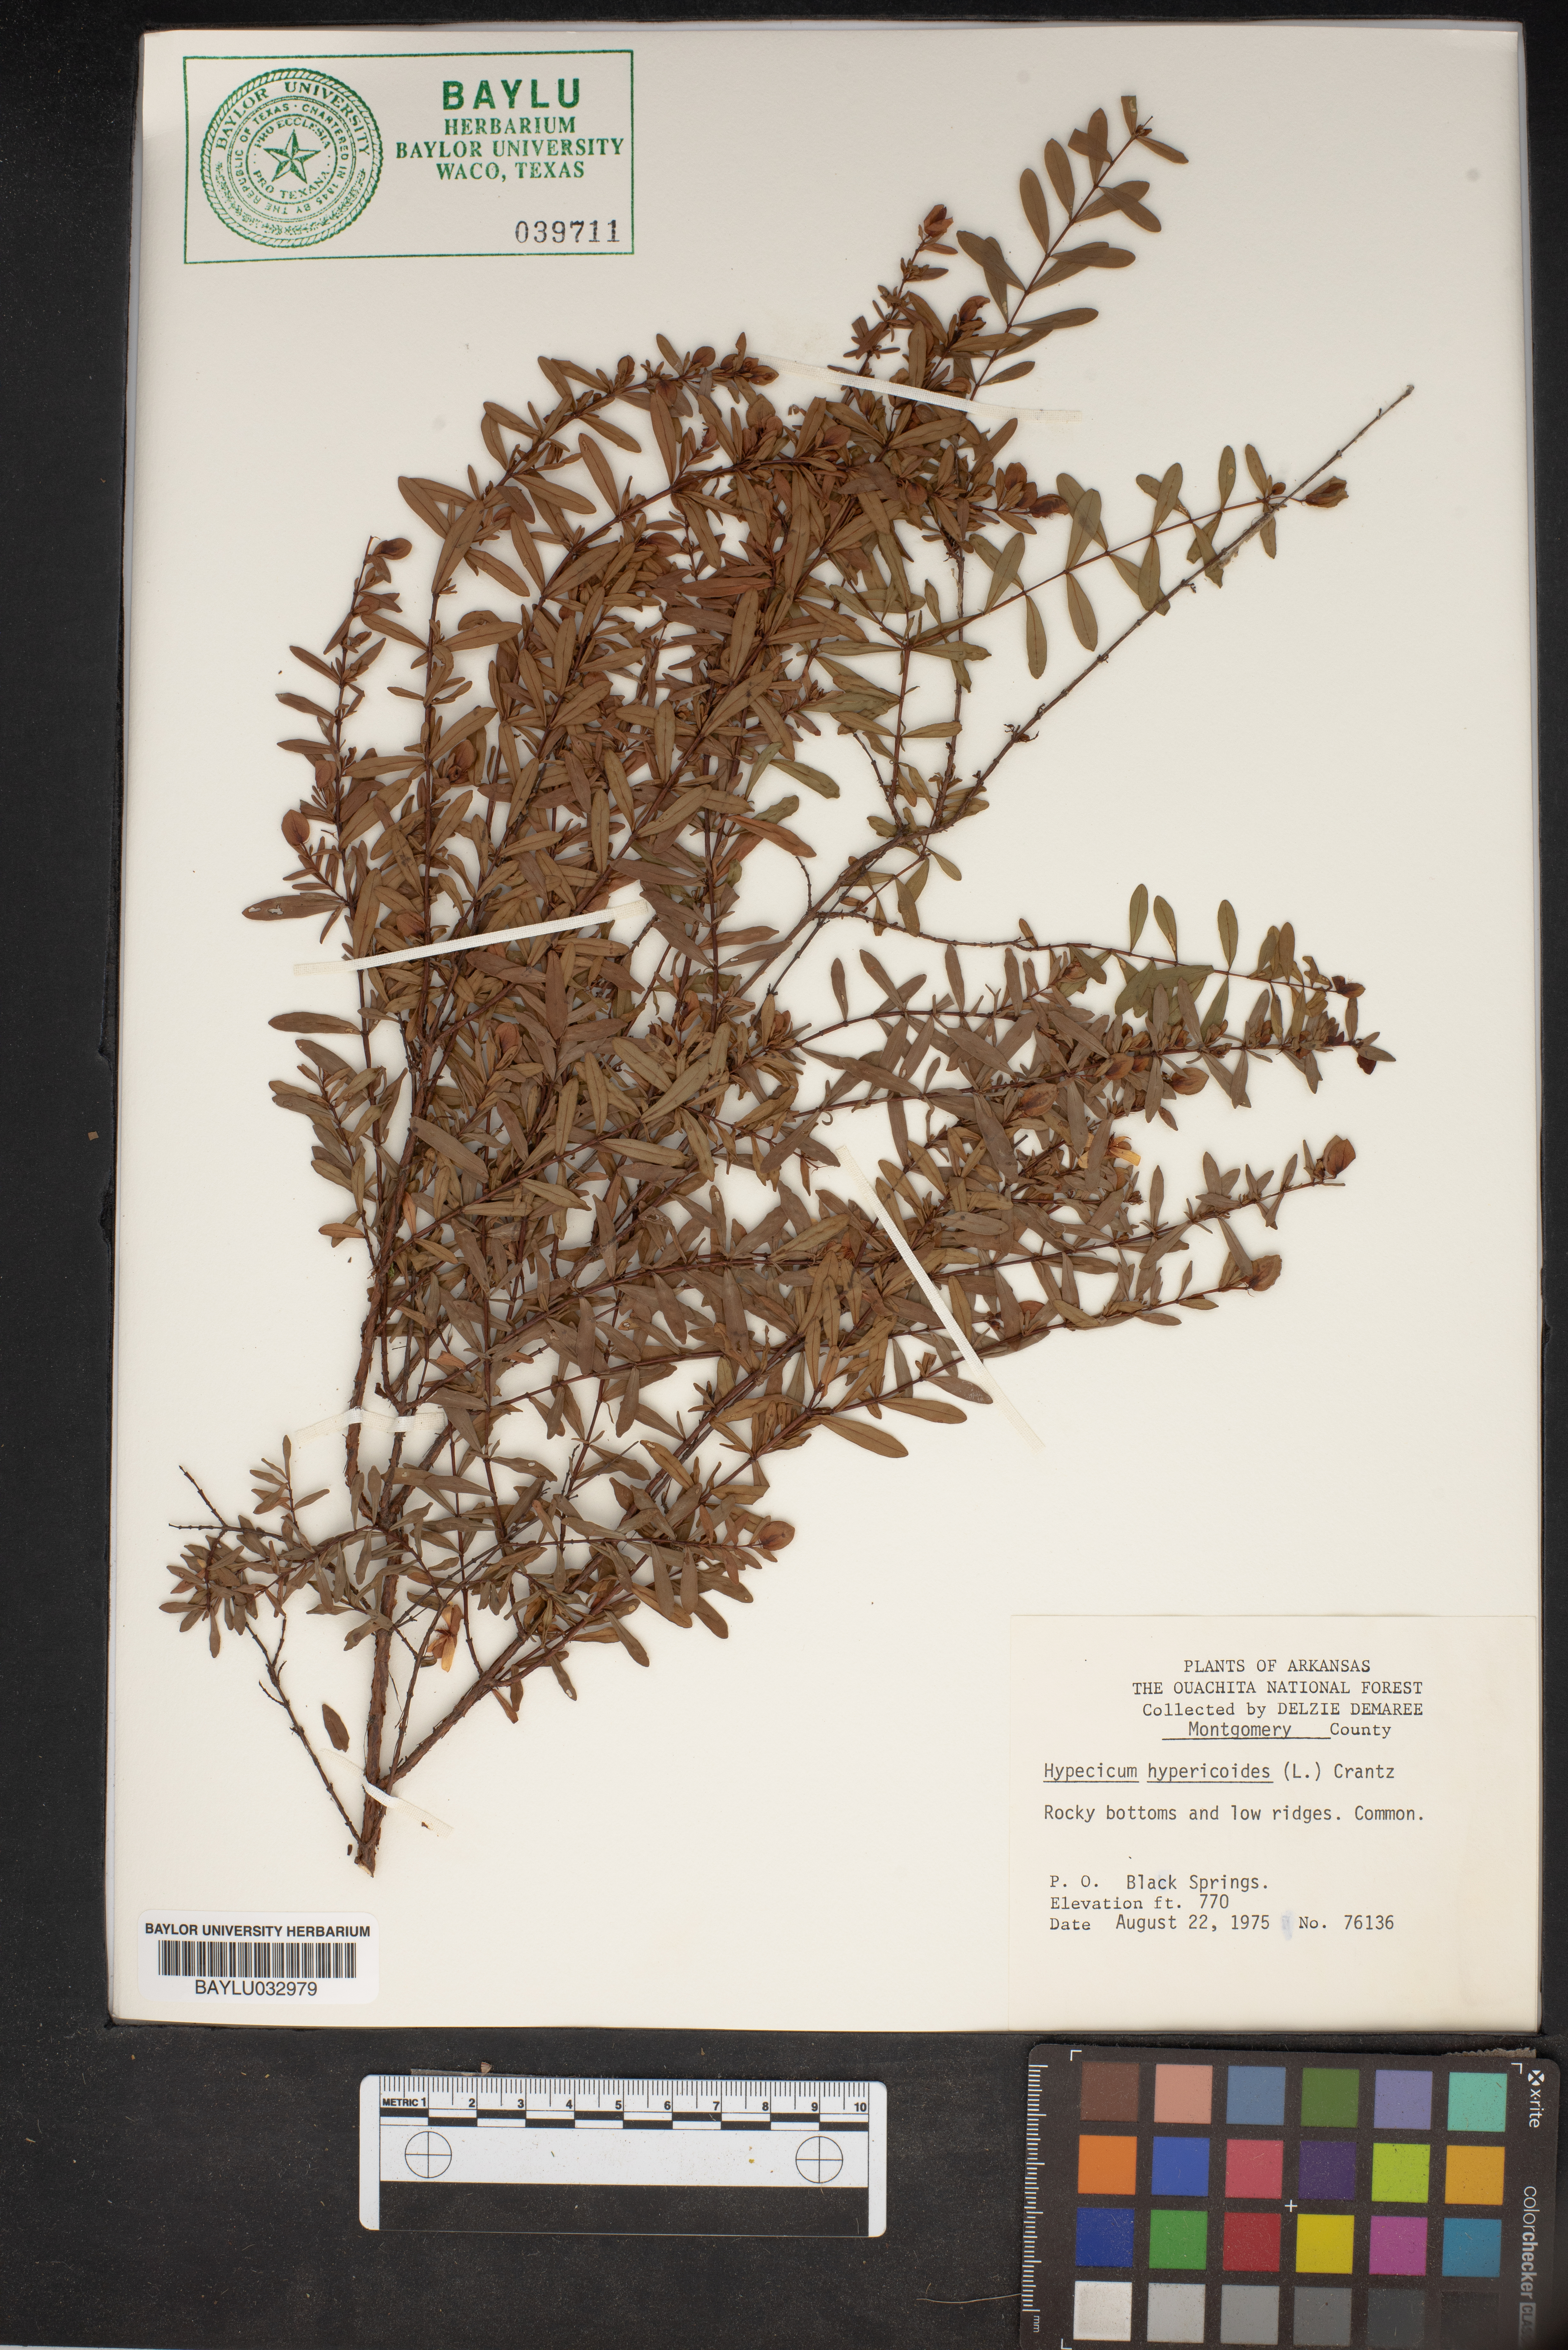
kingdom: Plantae
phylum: Tracheophyta
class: Magnoliopsida
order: Malpighiales
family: Hypericaceae
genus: Hypericum
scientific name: Hypericum hypericoides
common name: St. andrew's cross
